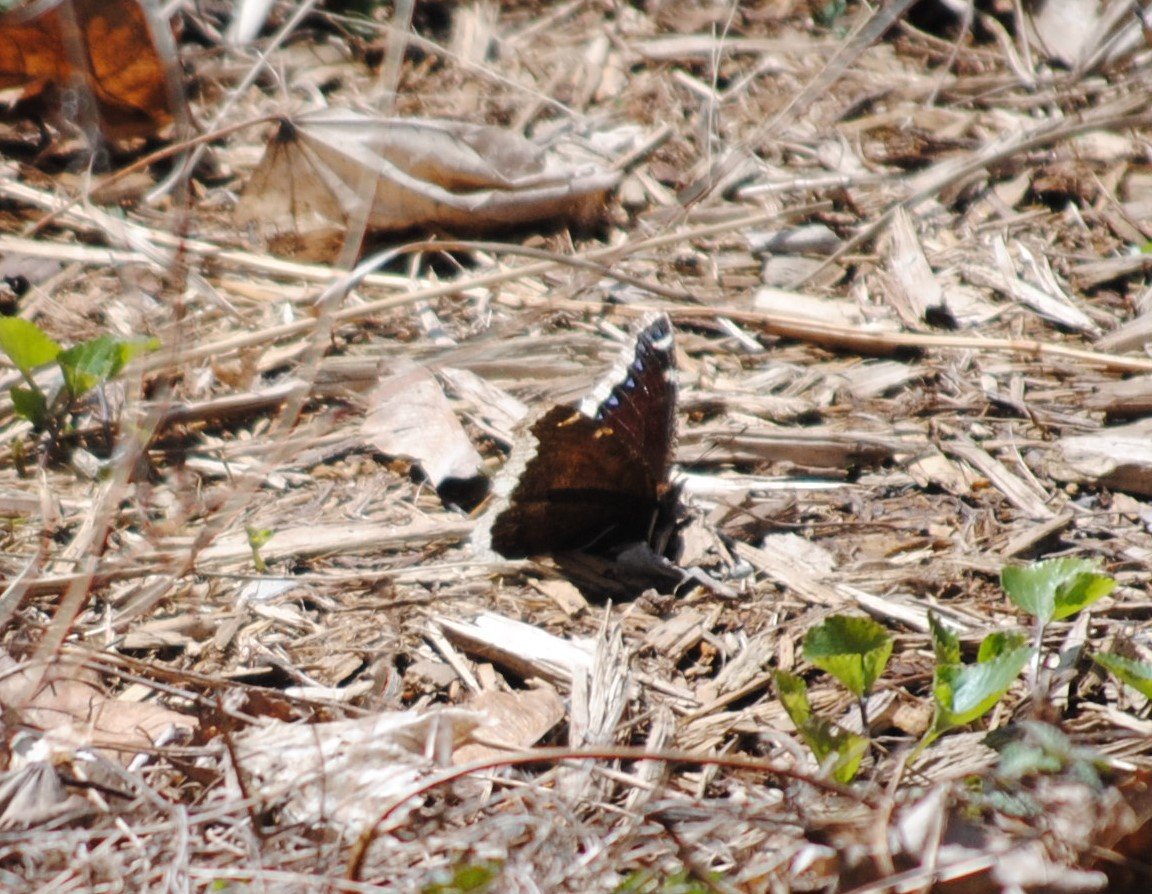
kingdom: Animalia
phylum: Arthropoda
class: Insecta
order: Lepidoptera
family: Nymphalidae
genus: Nymphalis
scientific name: Nymphalis antiopa
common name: Mourning Cloak
